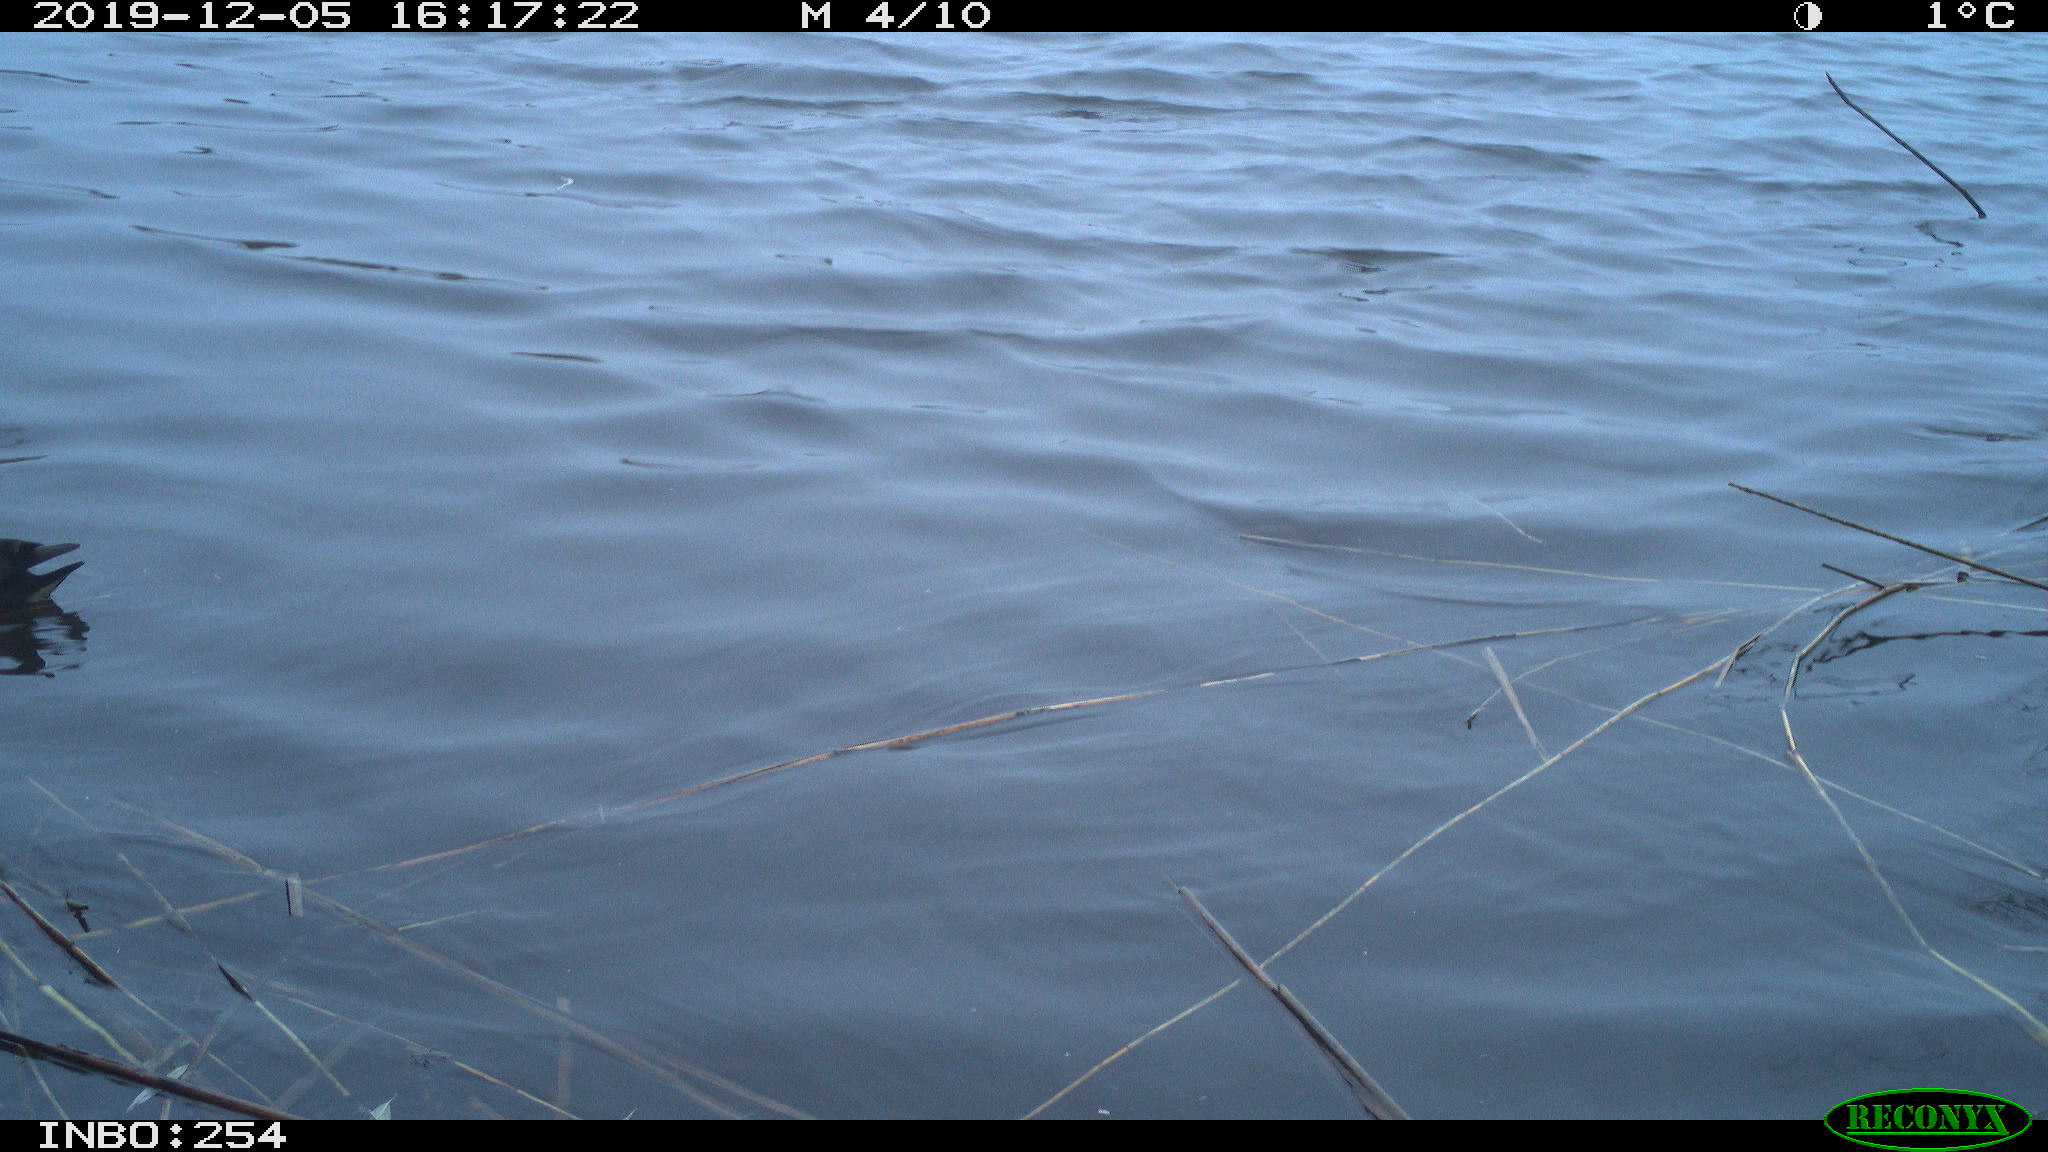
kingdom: Animalia
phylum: Chordata
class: Aves
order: Gruiformes
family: Rallidae
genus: Gallinula
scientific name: Gallinula chloropus
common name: Common moorhen
